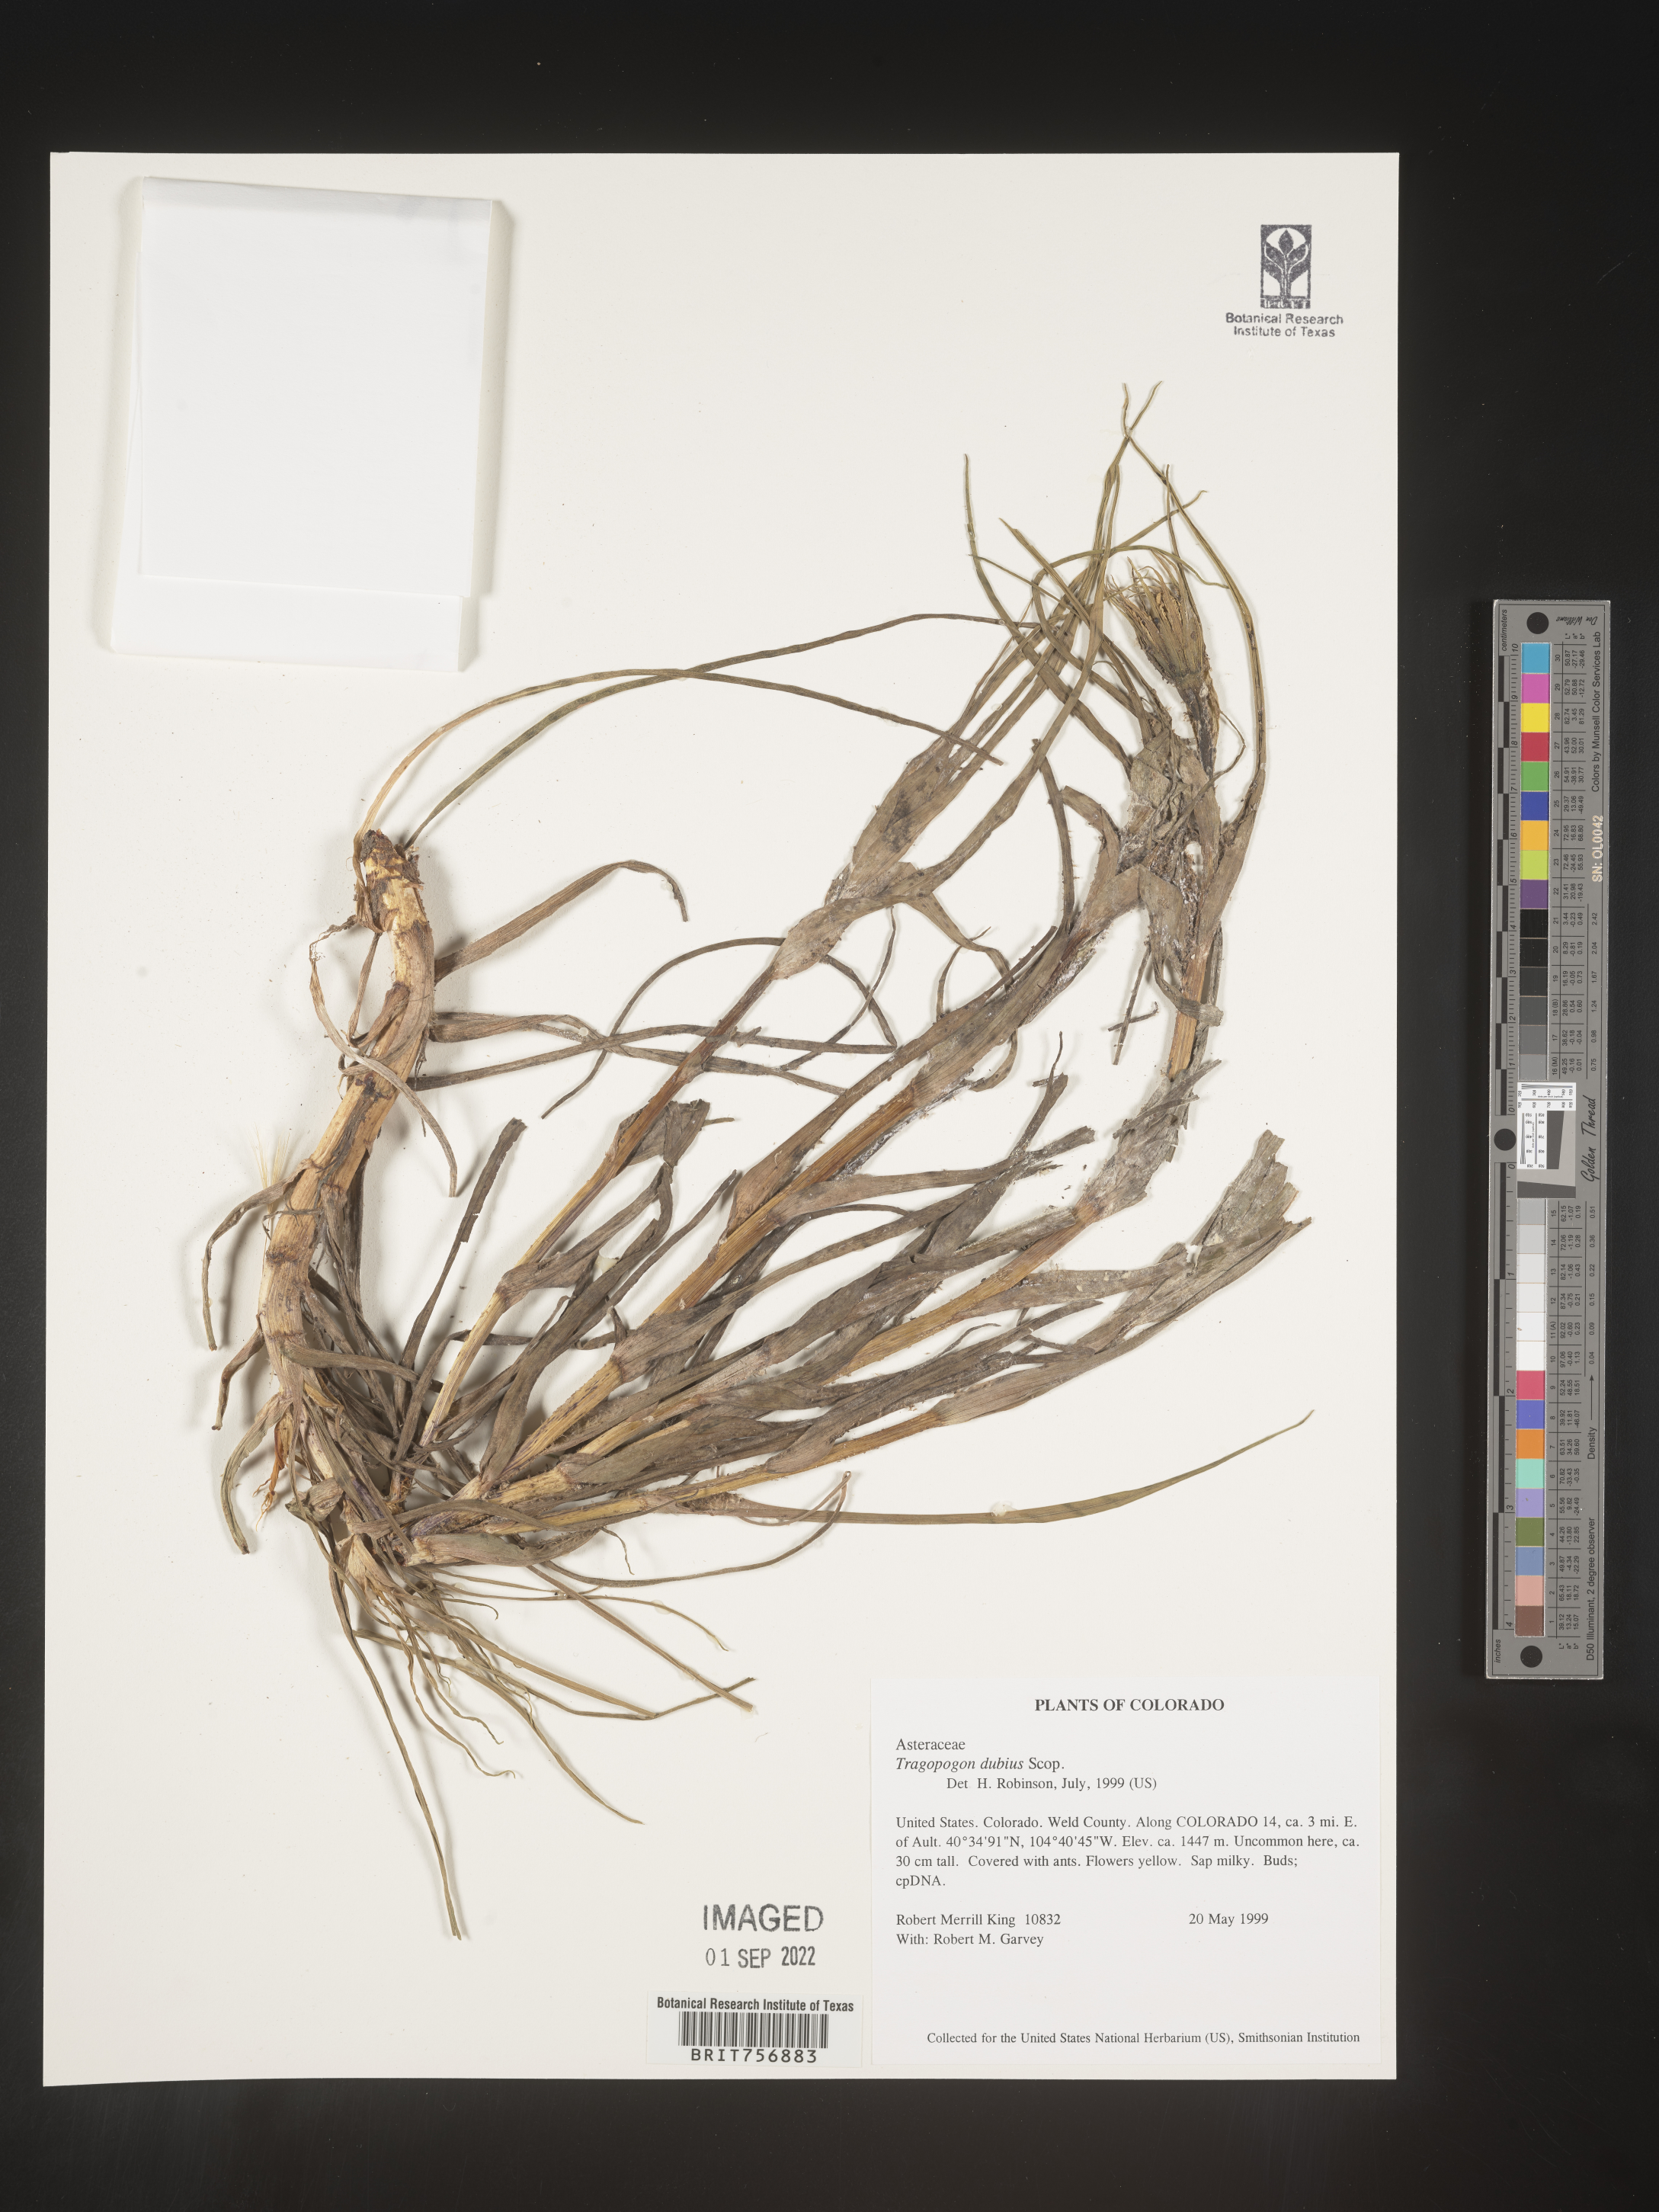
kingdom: Plantae
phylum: Tracheophyta
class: Magnoliopsida
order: Asterales
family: Asteraceae
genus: Tragopogon
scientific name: Tragopogon dubius
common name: Yellow salsify
